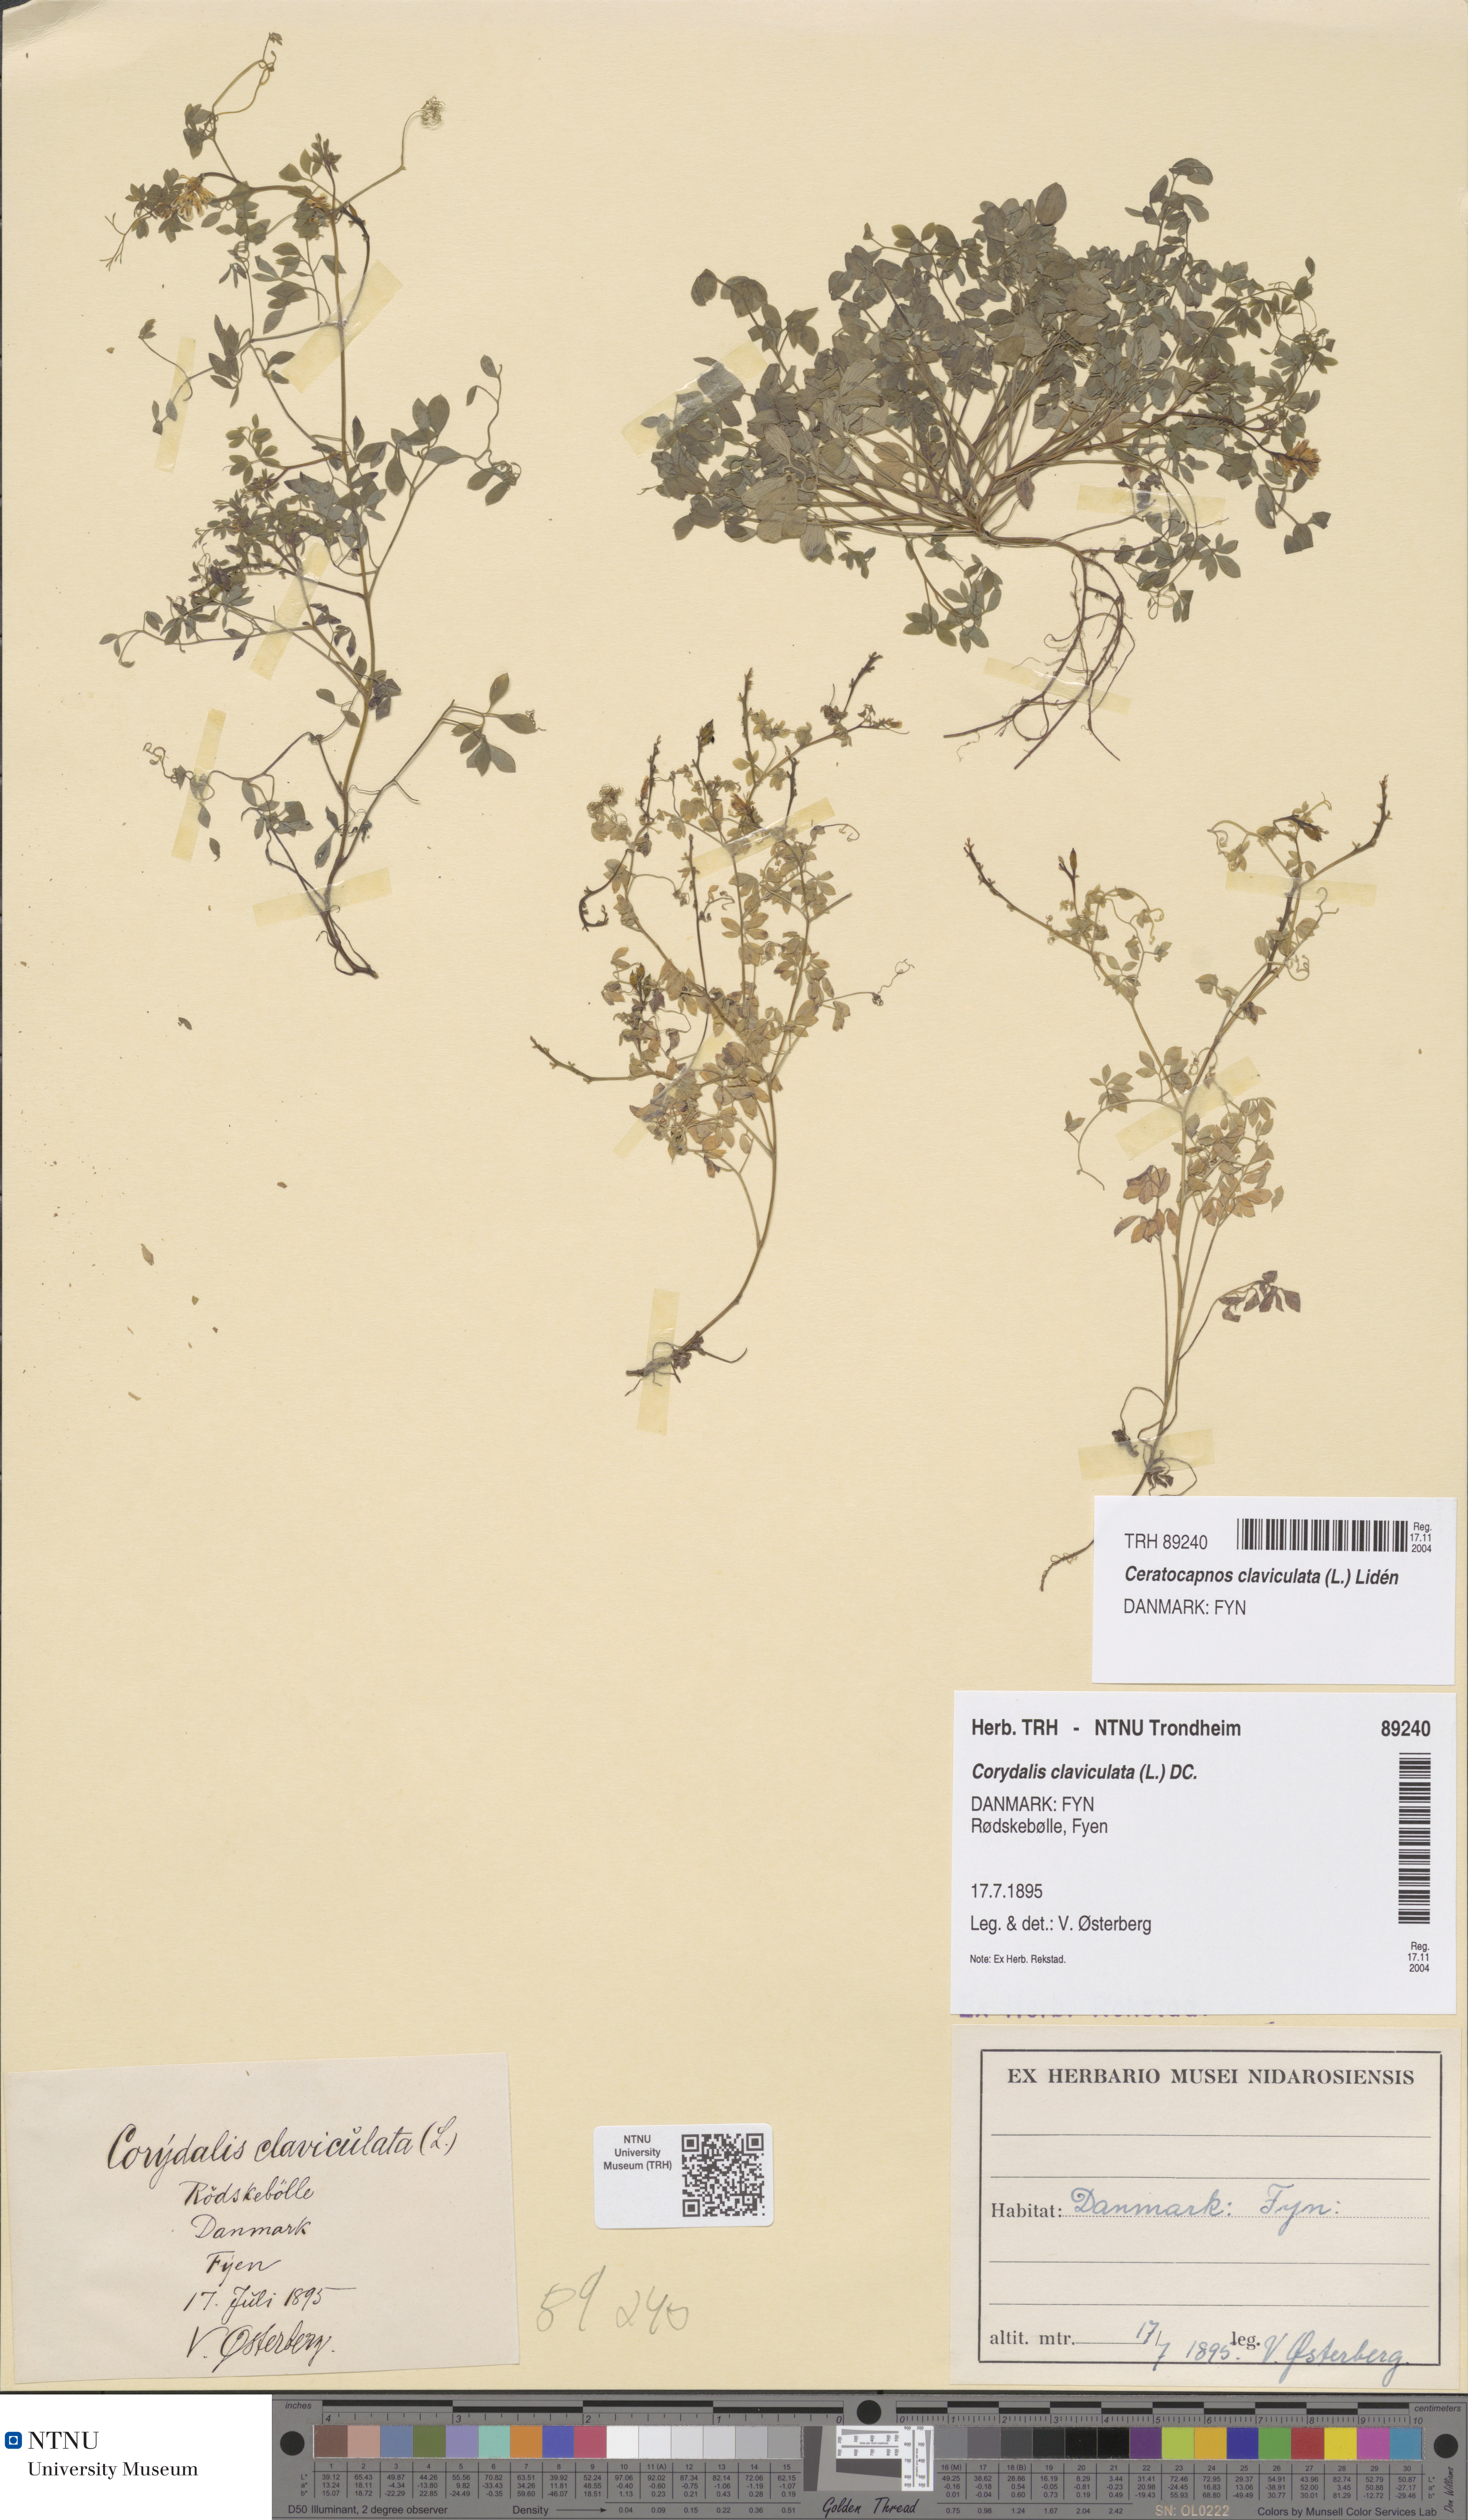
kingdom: Plantae
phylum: Tracheophyta
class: Magnoliopsida
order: Ranunculales
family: Papaveraceae
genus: Ceratocapnos
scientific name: Ceratocapnos claviculata
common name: Climbing corydalis
